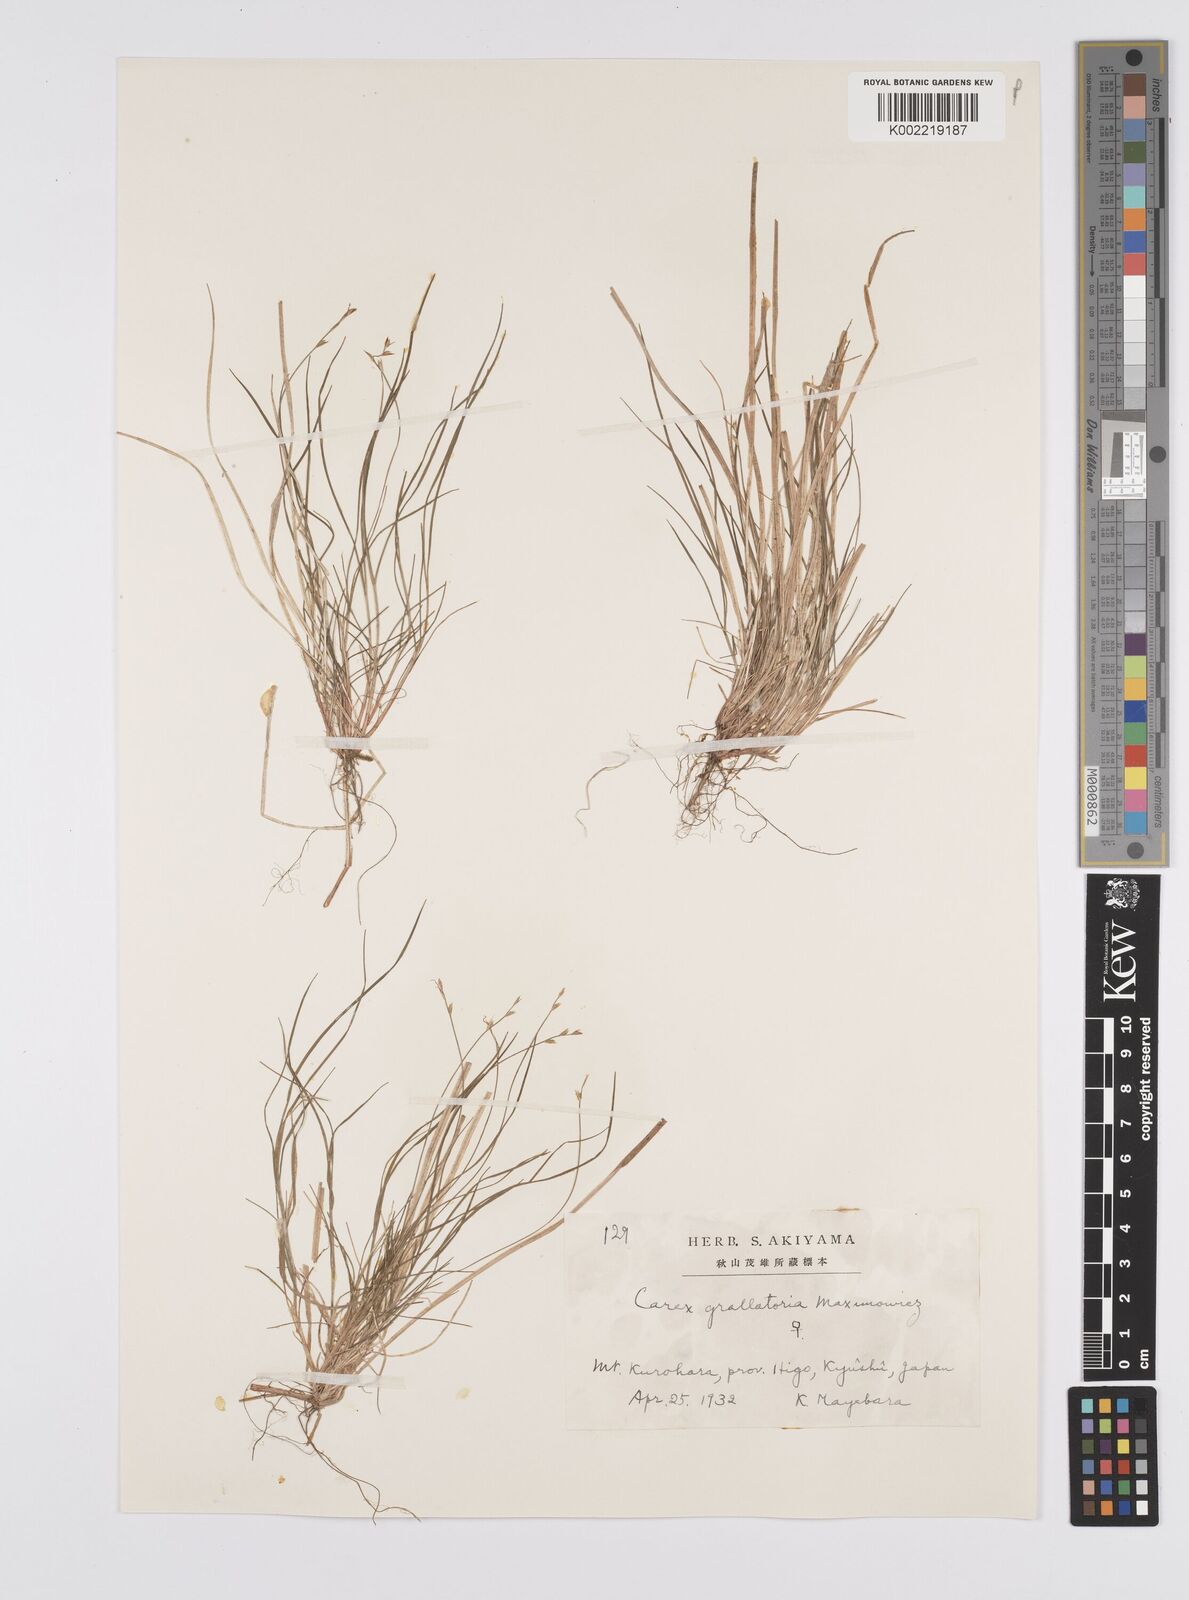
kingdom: Plantae
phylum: Tracheophyta
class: Liliopsida
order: Poales
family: Cyperaceae
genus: Carex
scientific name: Carex grallatoria
